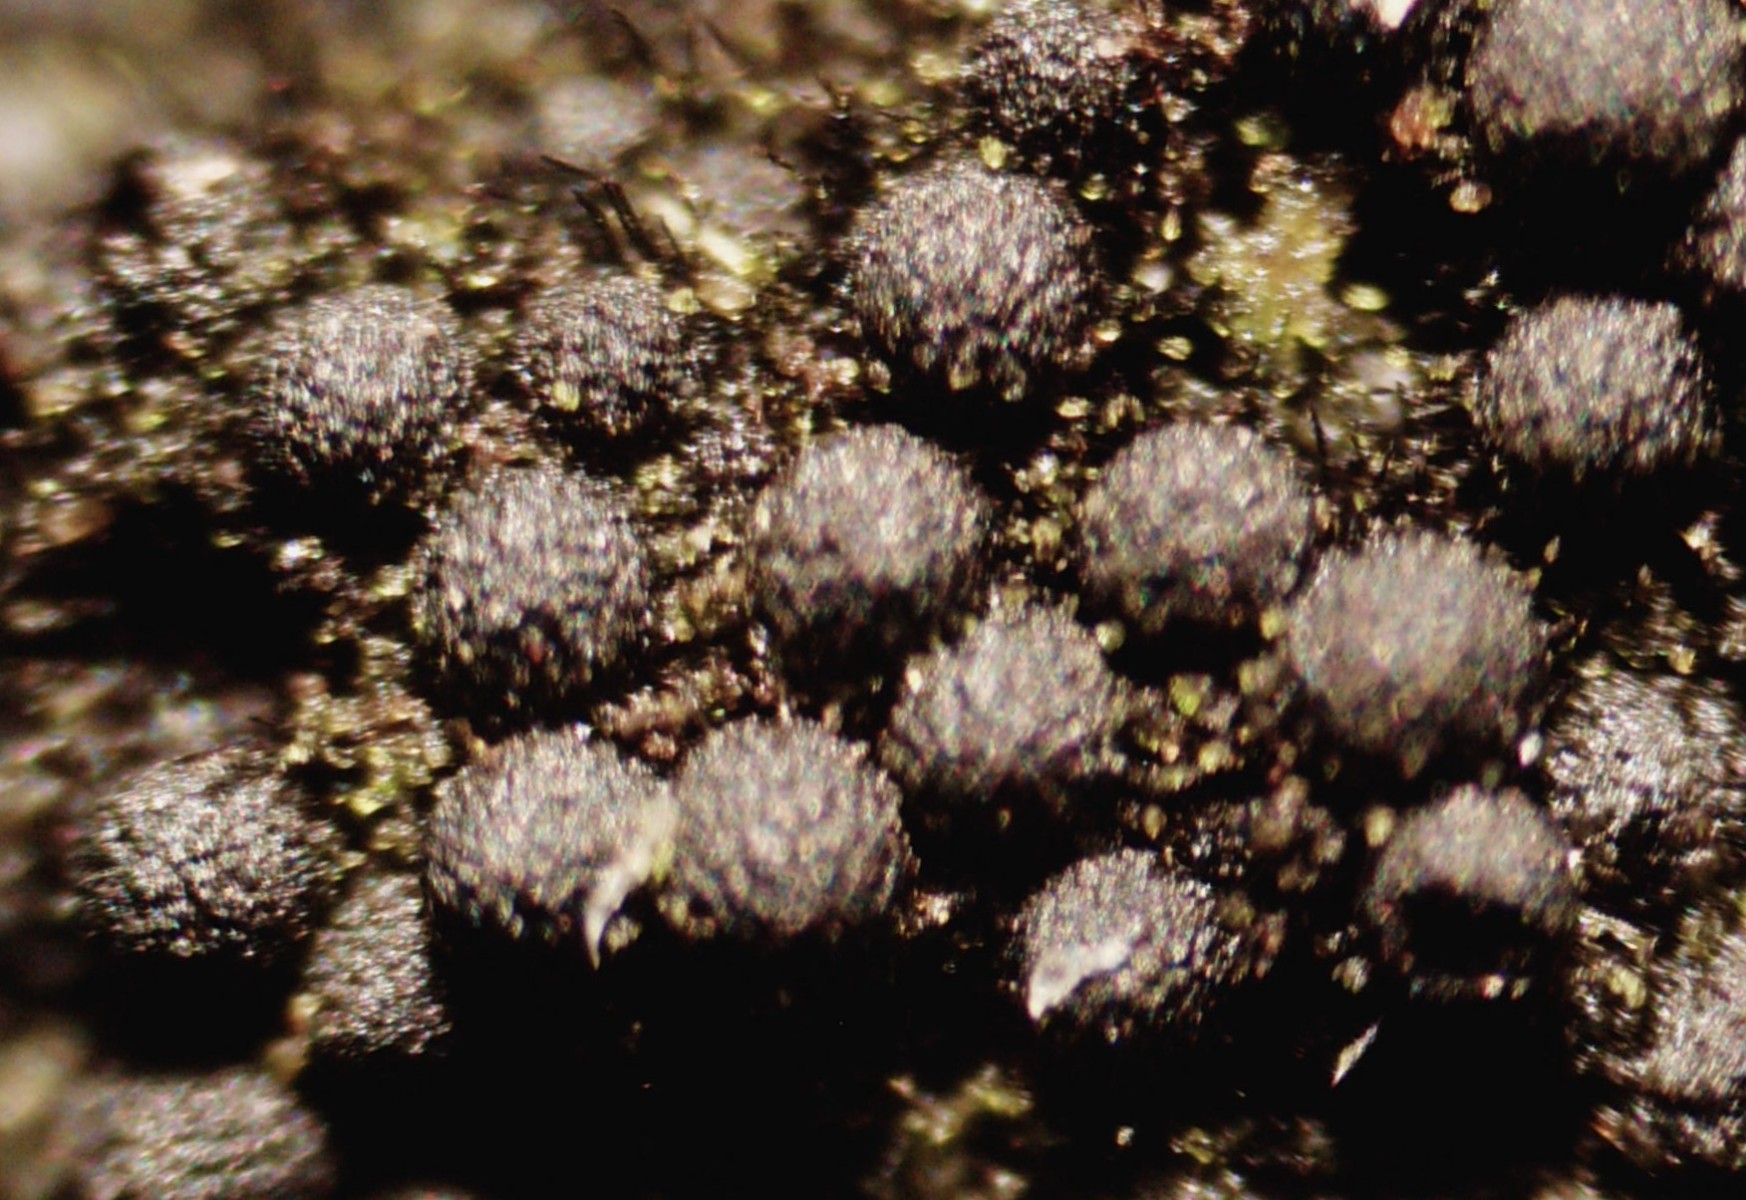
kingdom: Fungi
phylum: Ascomycota
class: Sordariomycetes
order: Coronophorales
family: Chaetosphaerellaceae
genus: Chaetosphaerella
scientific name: Chaetosphaerella phaeostroma
